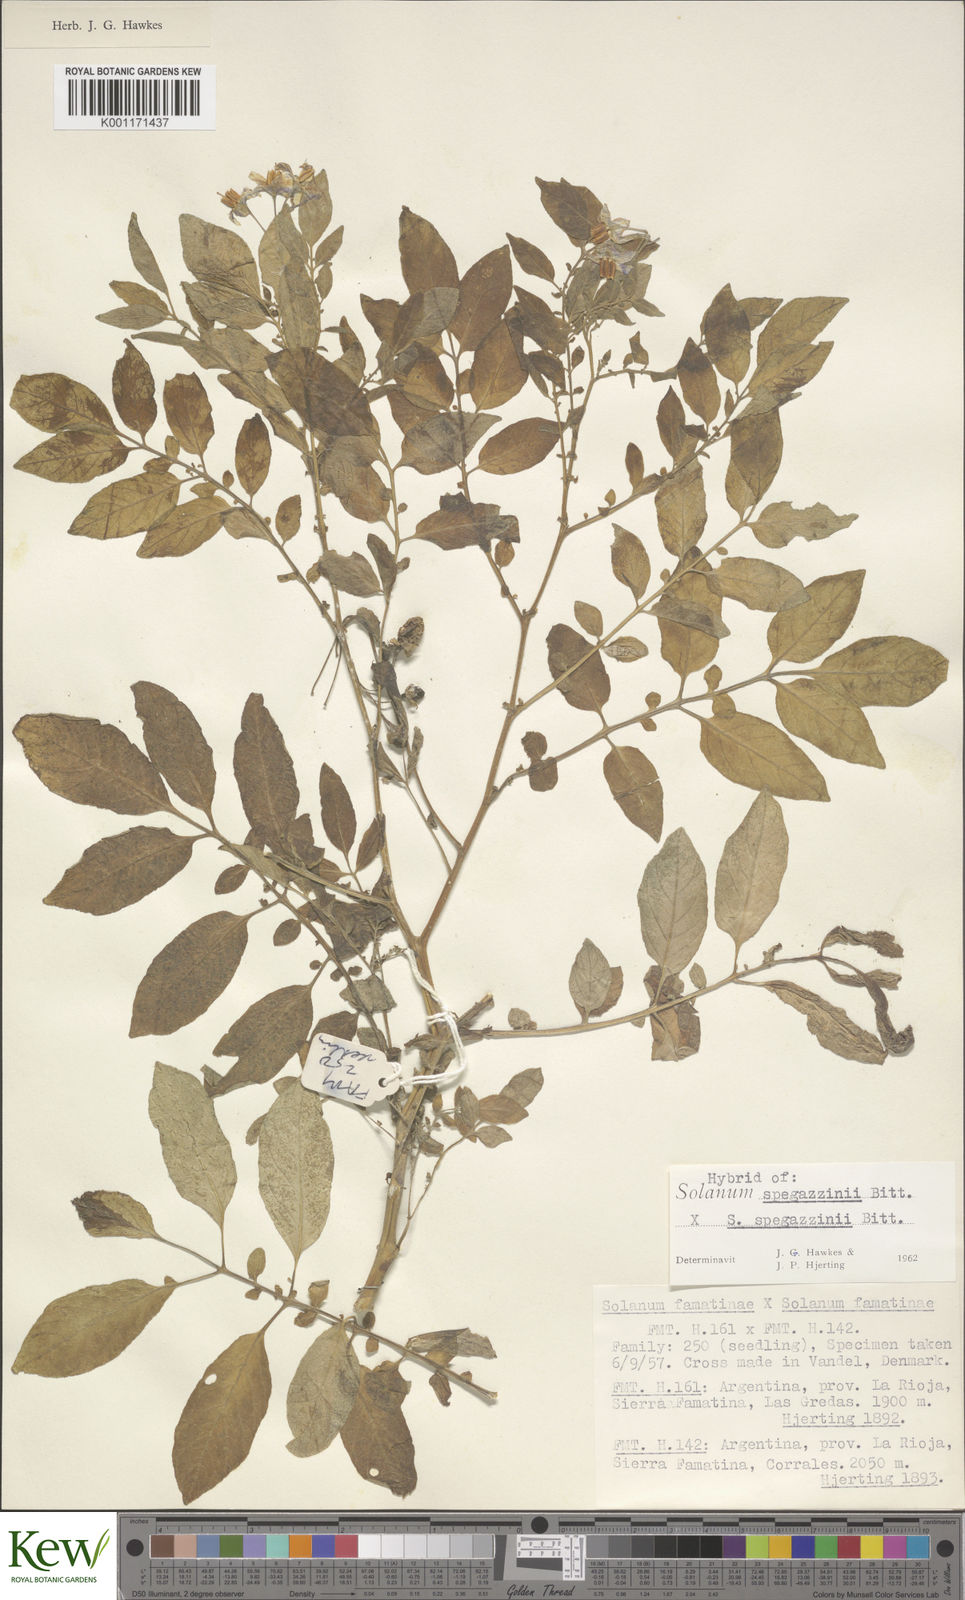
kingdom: Plantae
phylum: Tracheophyta
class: Magnoliopsida
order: Solanales
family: Solanaceae
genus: Solanum
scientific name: Solanum brevicaule
